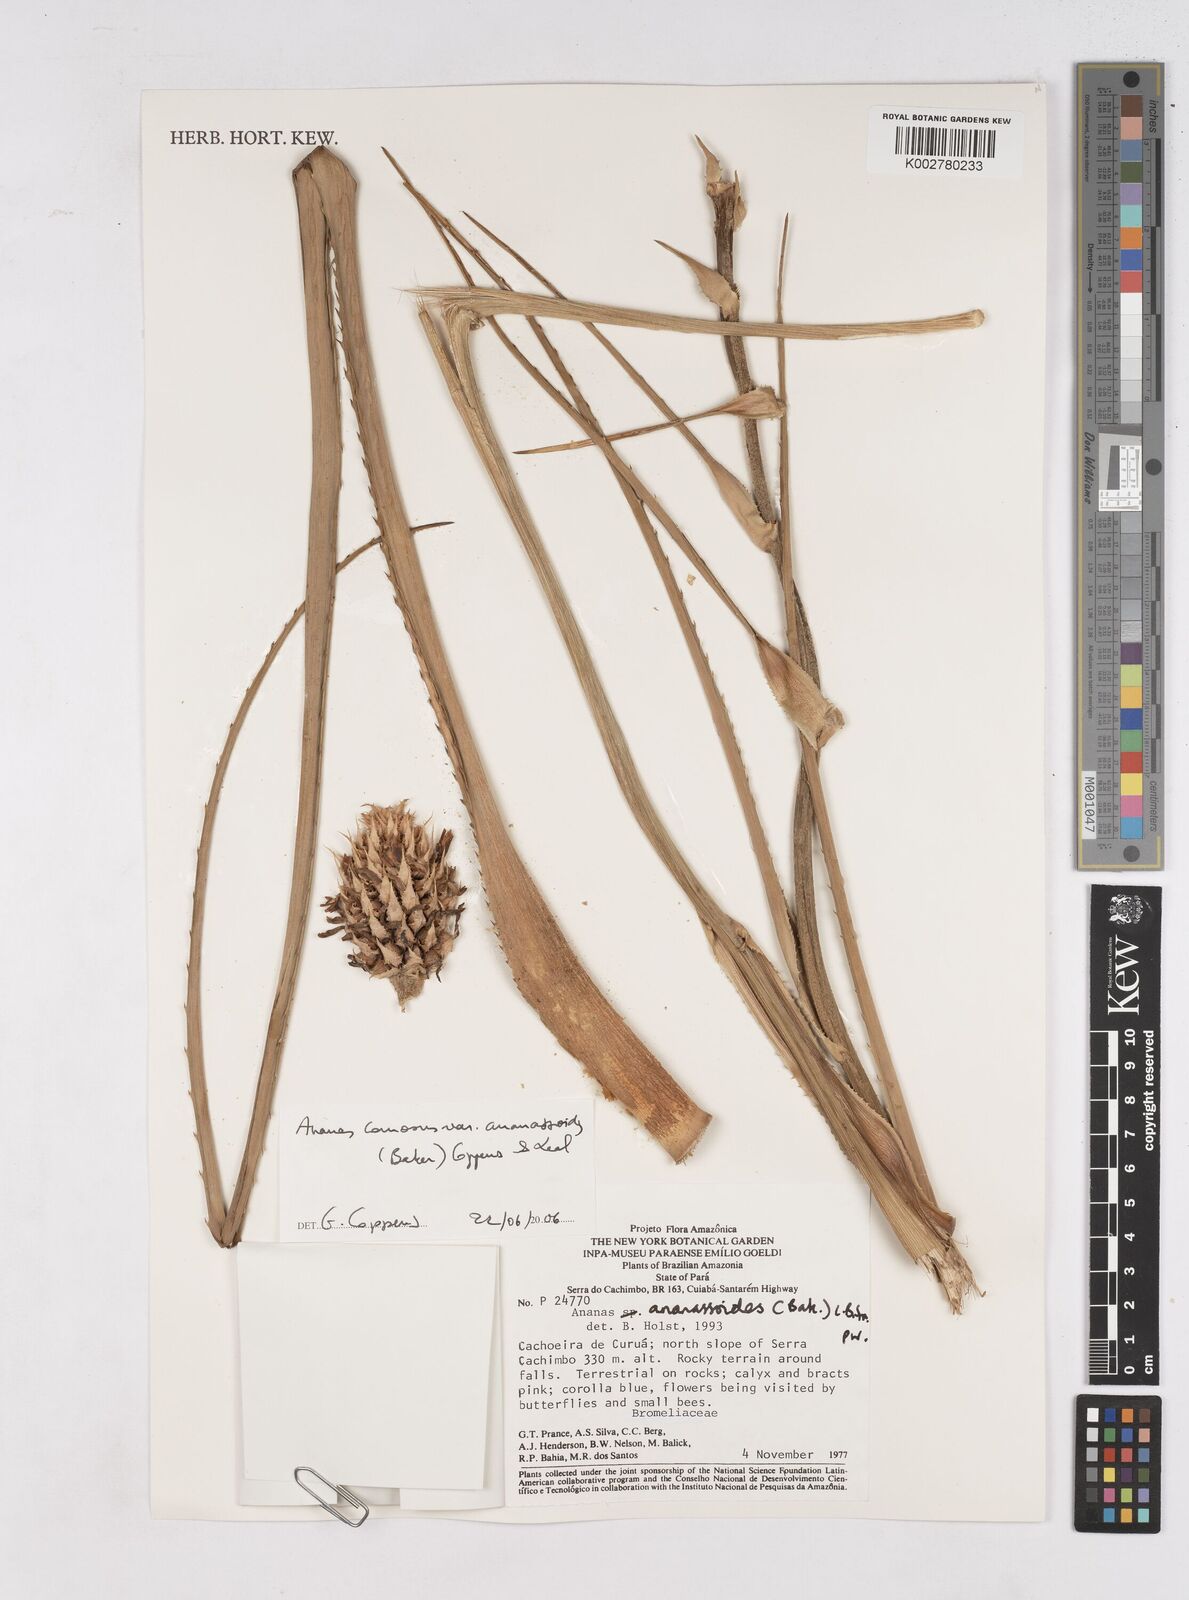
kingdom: Plantae
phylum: Tracheophyta
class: Liliopsida
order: Poales
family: Bromeliaceae
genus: Ananas
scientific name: Ananas comosus
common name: Pineapple
